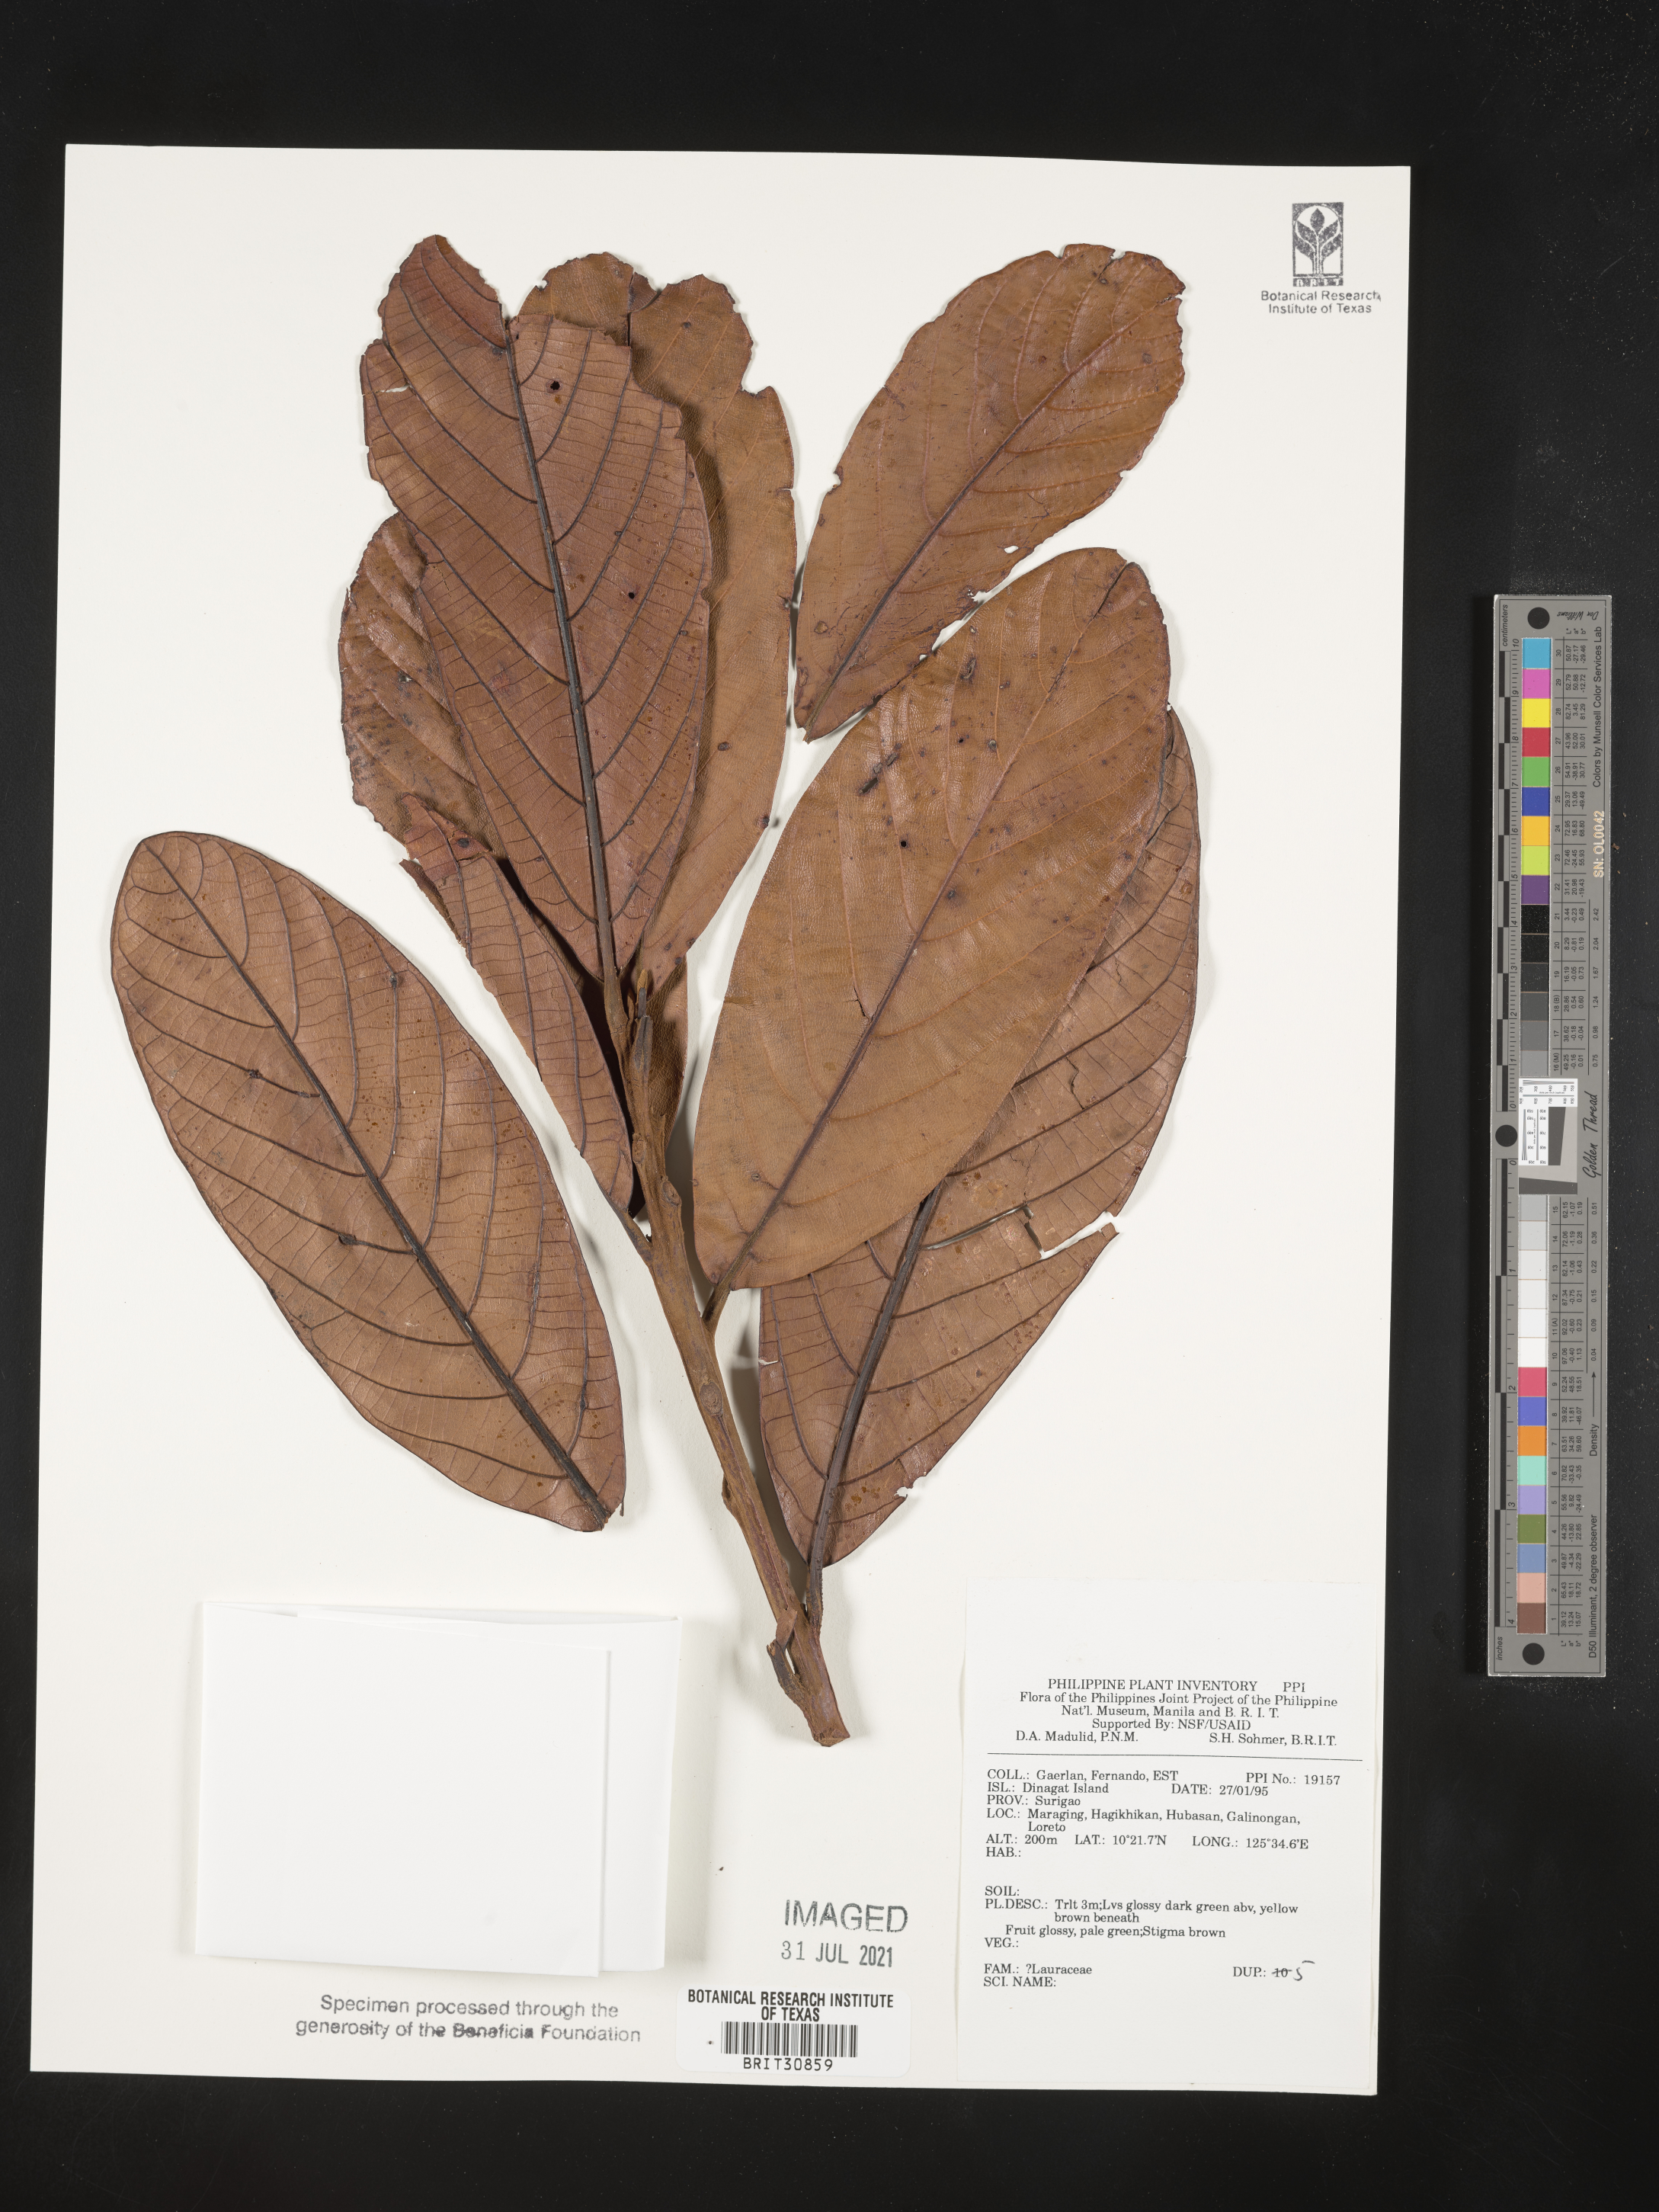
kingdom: Plantae
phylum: Tracheophyta
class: Magnoliopsida
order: Laurales
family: Lauraceae
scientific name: Lauraceae
